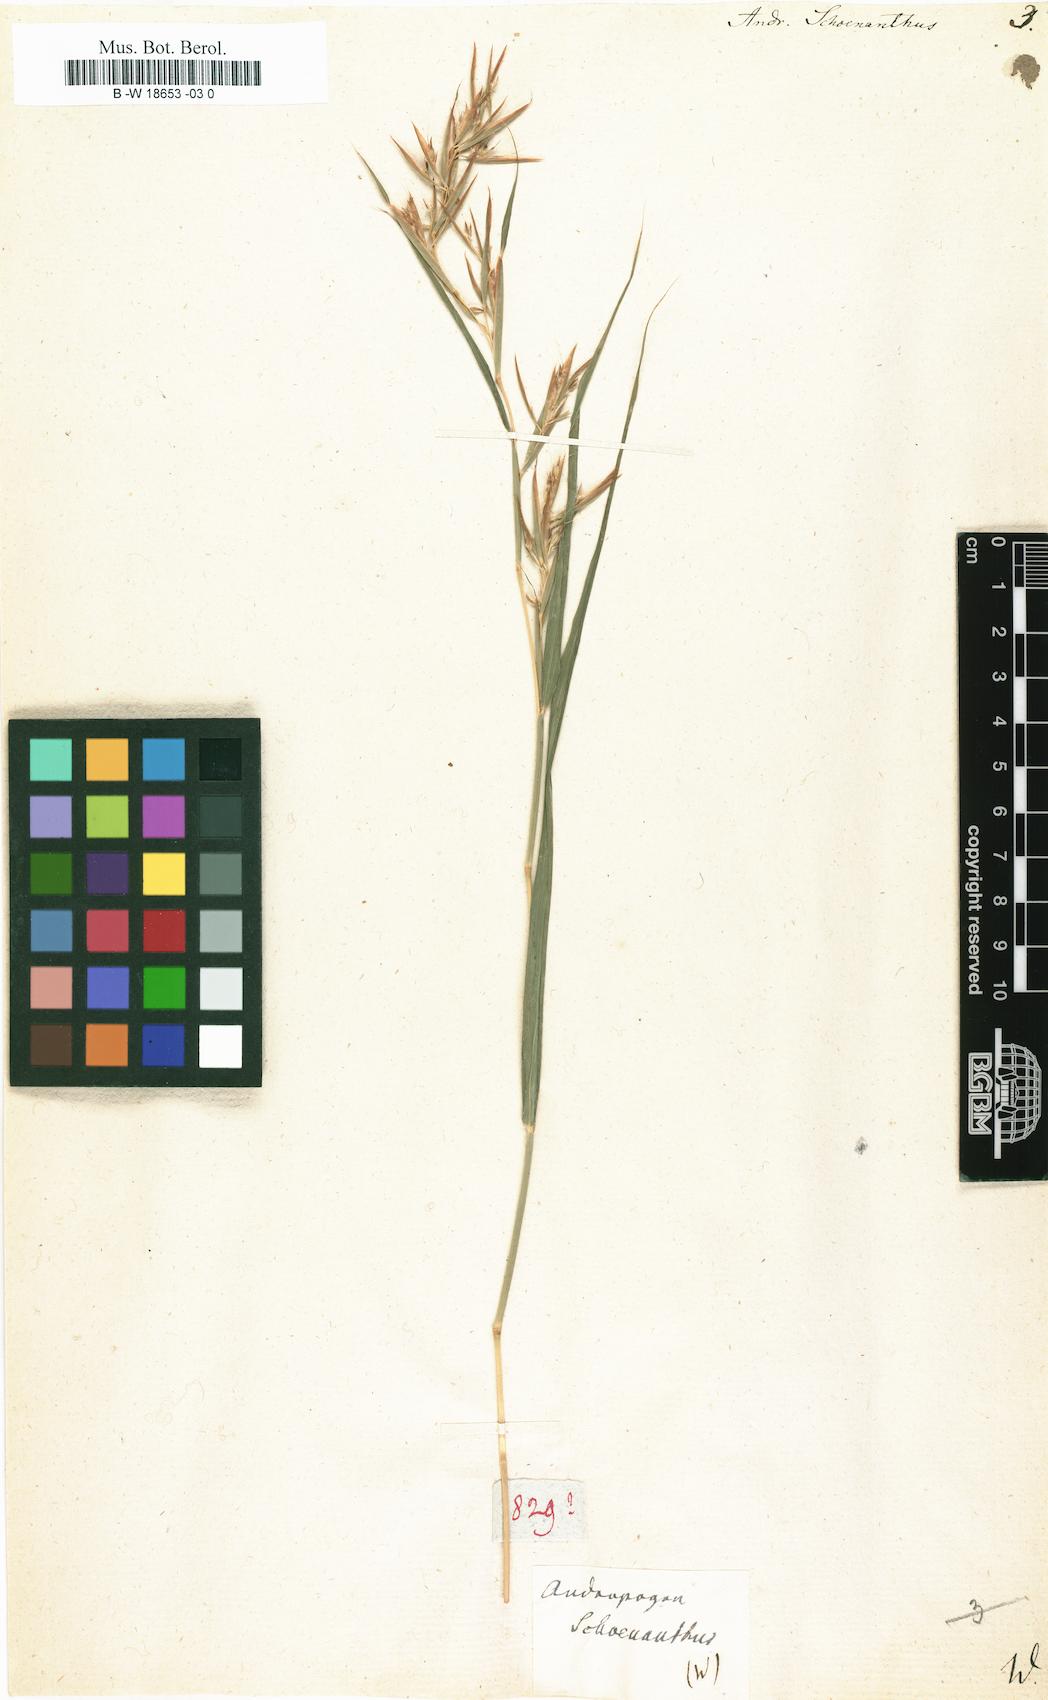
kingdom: Plantae
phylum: Tracheophyta
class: Liliopsida
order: Poales
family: Poaceae
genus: Cymbopogon
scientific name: Cymbopogon schoenanthus
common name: Geranium grass
